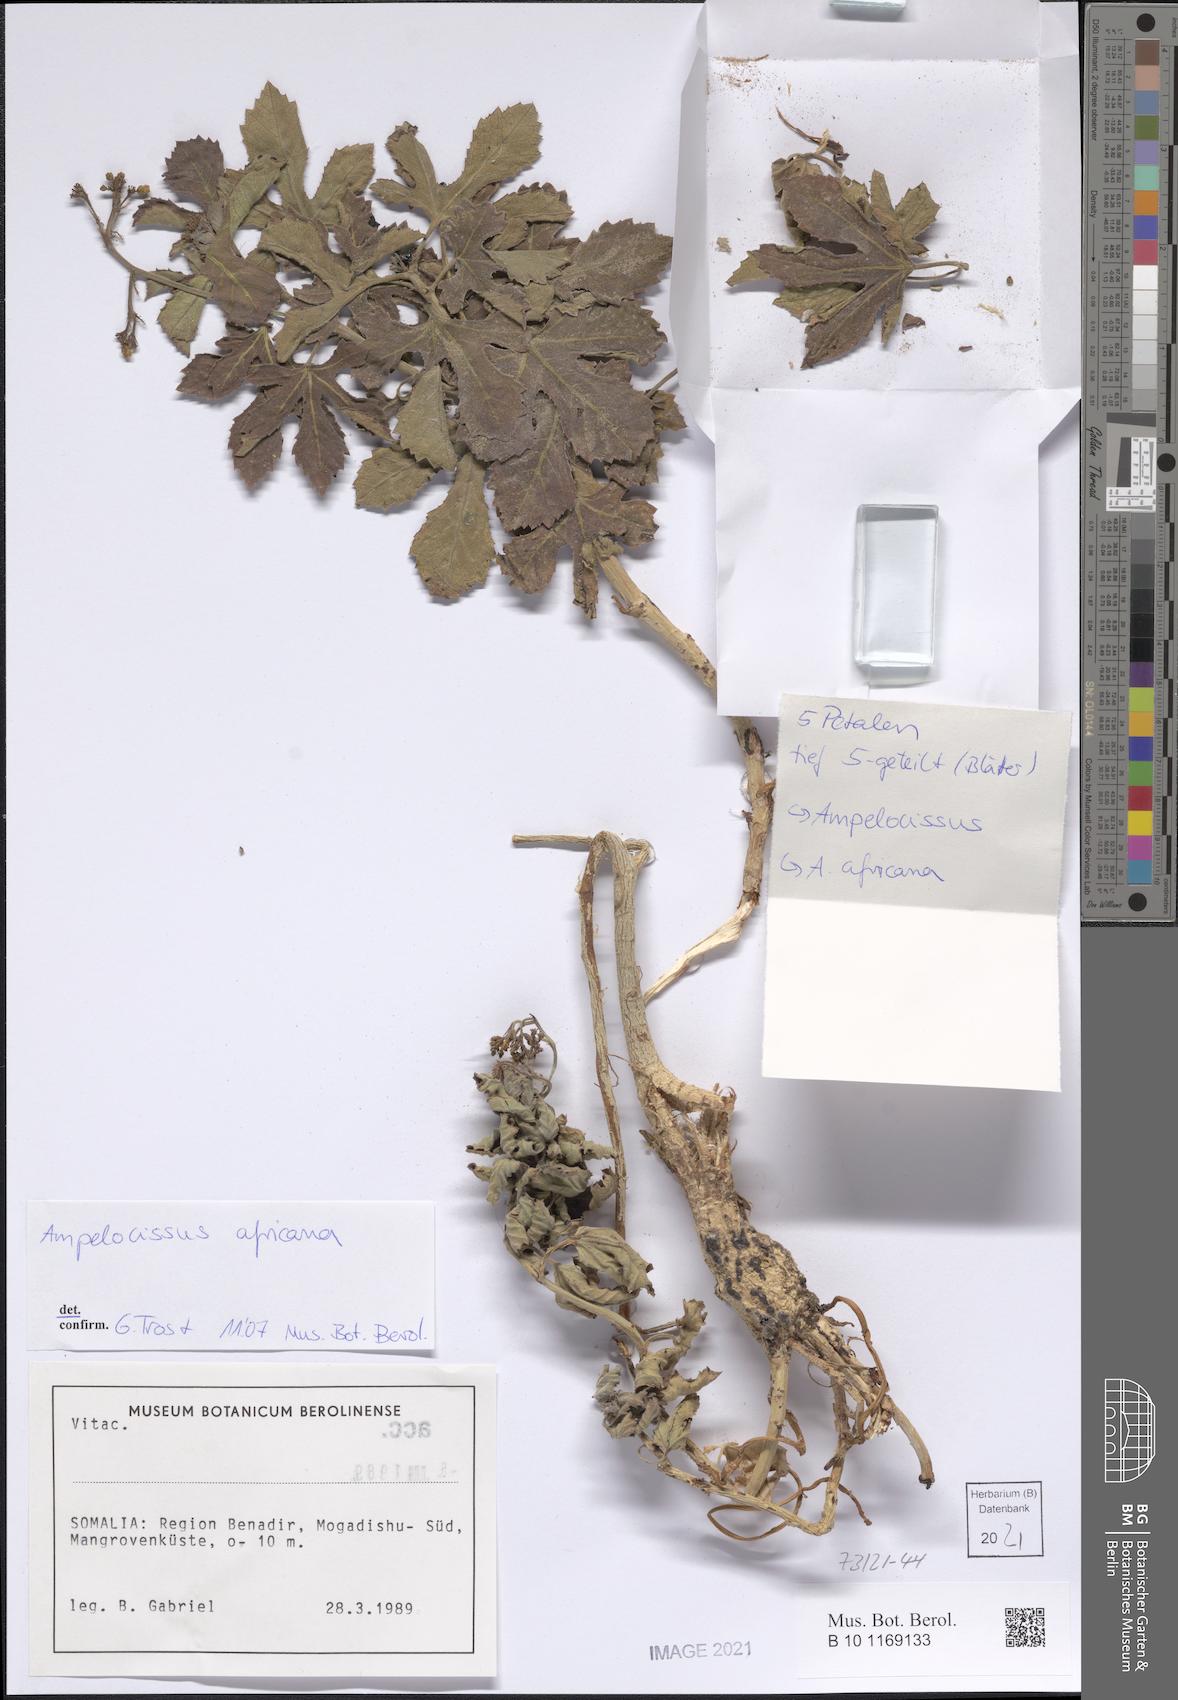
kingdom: Plantae
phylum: Tracheophyta
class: Magnoliopsida
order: Vitales
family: Vitaceae
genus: Ampelocissus
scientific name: Ampelocissus africana
